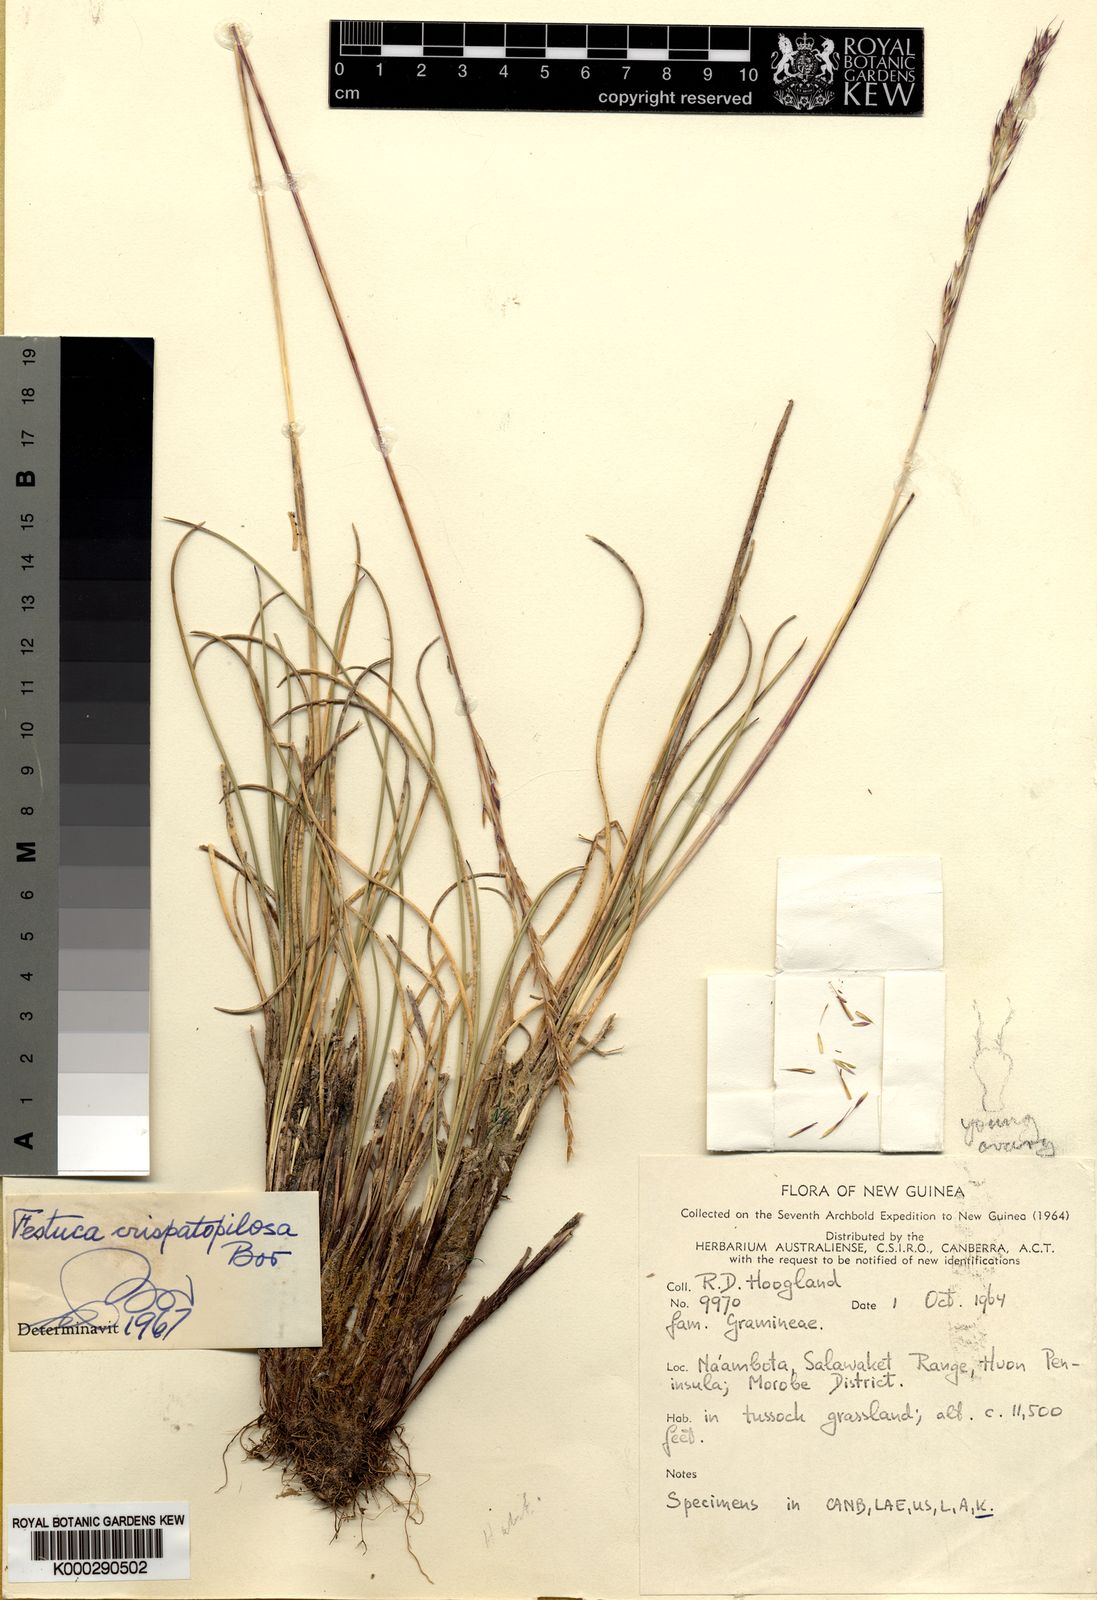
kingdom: Plantae
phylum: Tracheophyta
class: Liliopsida
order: Poales
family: Poaceae
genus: Festuca
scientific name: Festuca crispatopilosa
